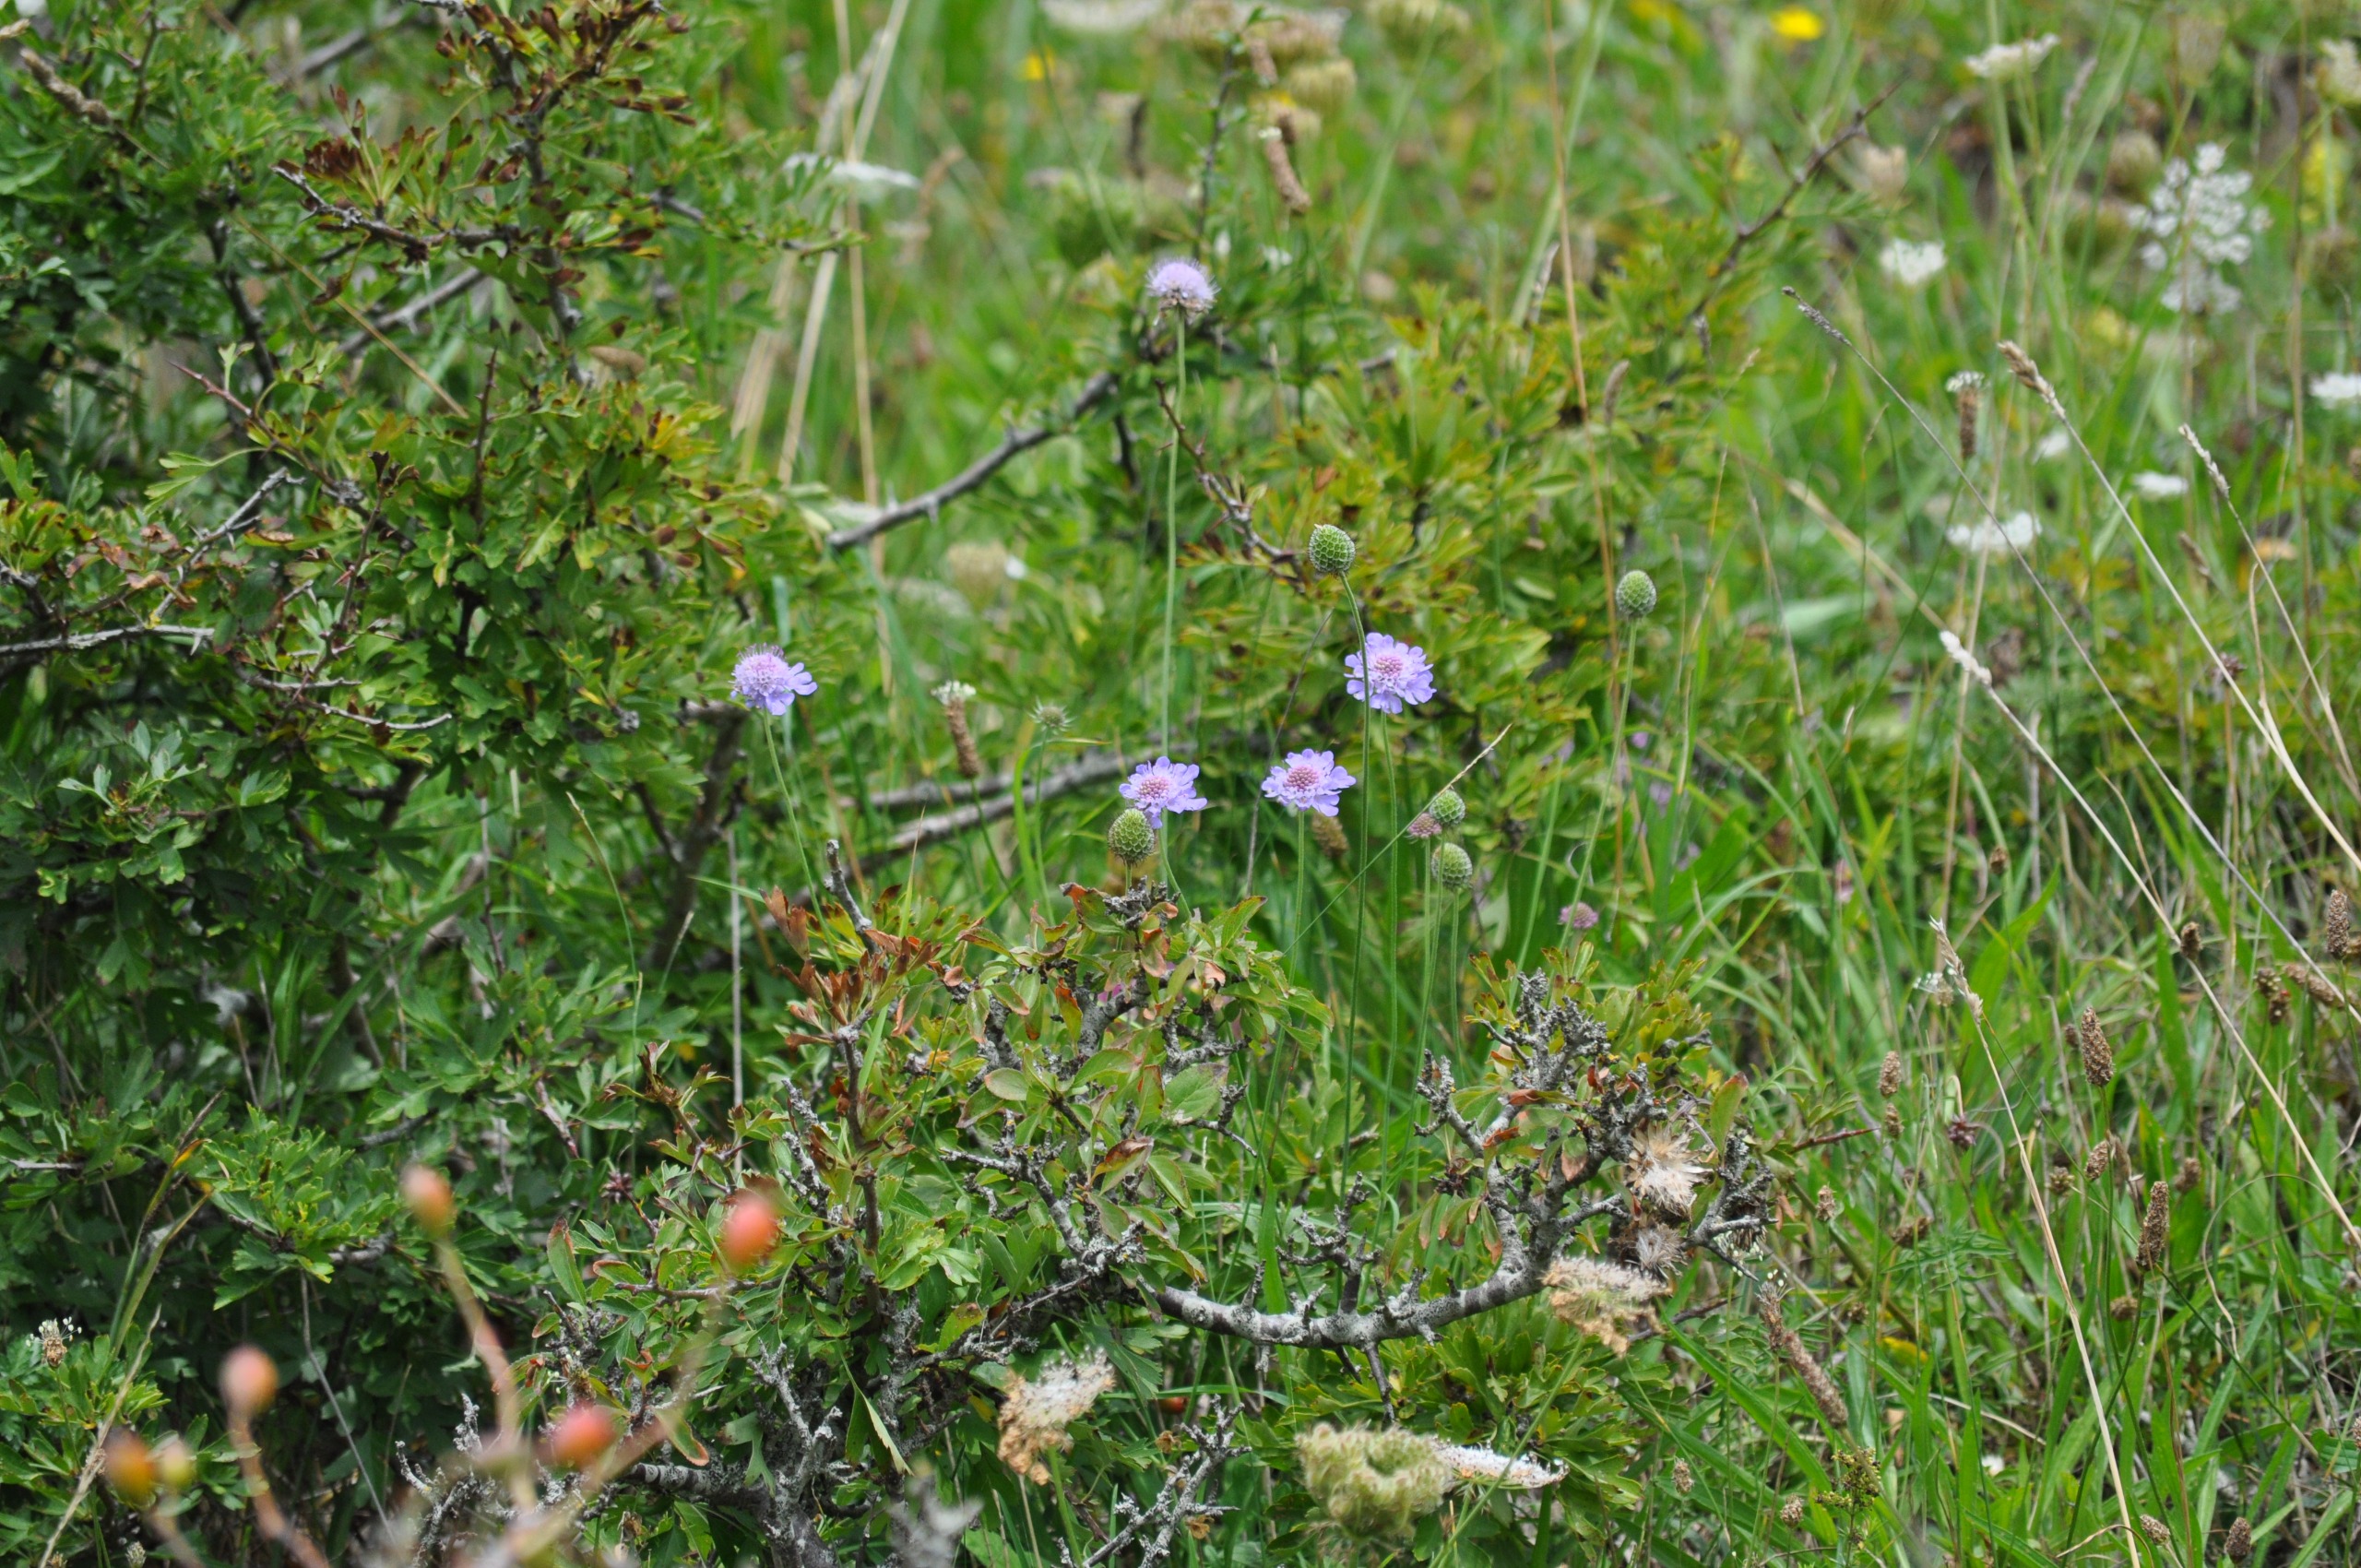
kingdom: Plantae
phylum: Tracheophyta
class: Magnoliopsida
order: Dipsacales
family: Caprifoliaceae
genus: Scabiosa
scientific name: Scabiosa columbaria
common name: Due-skabiose
